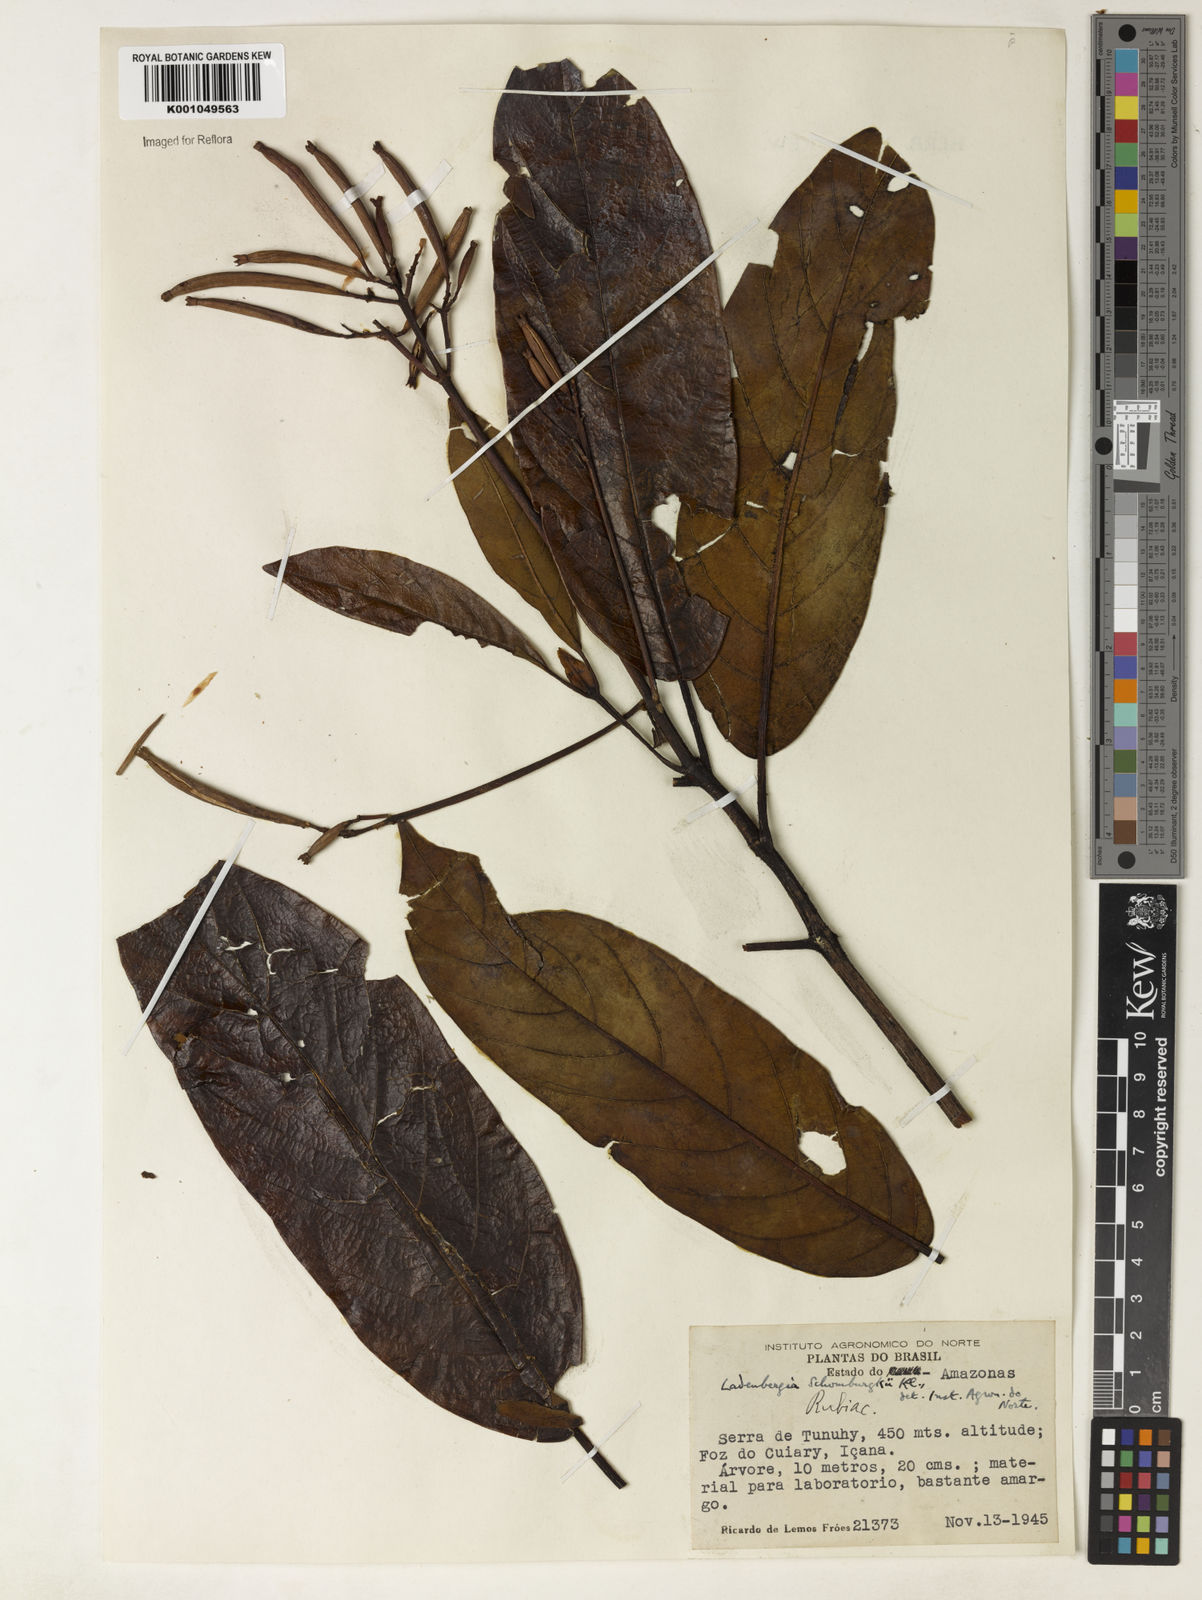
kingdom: Plantae
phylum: Tracheophyta
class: Magnoliopsida
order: Gentianales
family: Rubiaceae
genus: Ladenbergia
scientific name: Ladenbergia lambertiana
